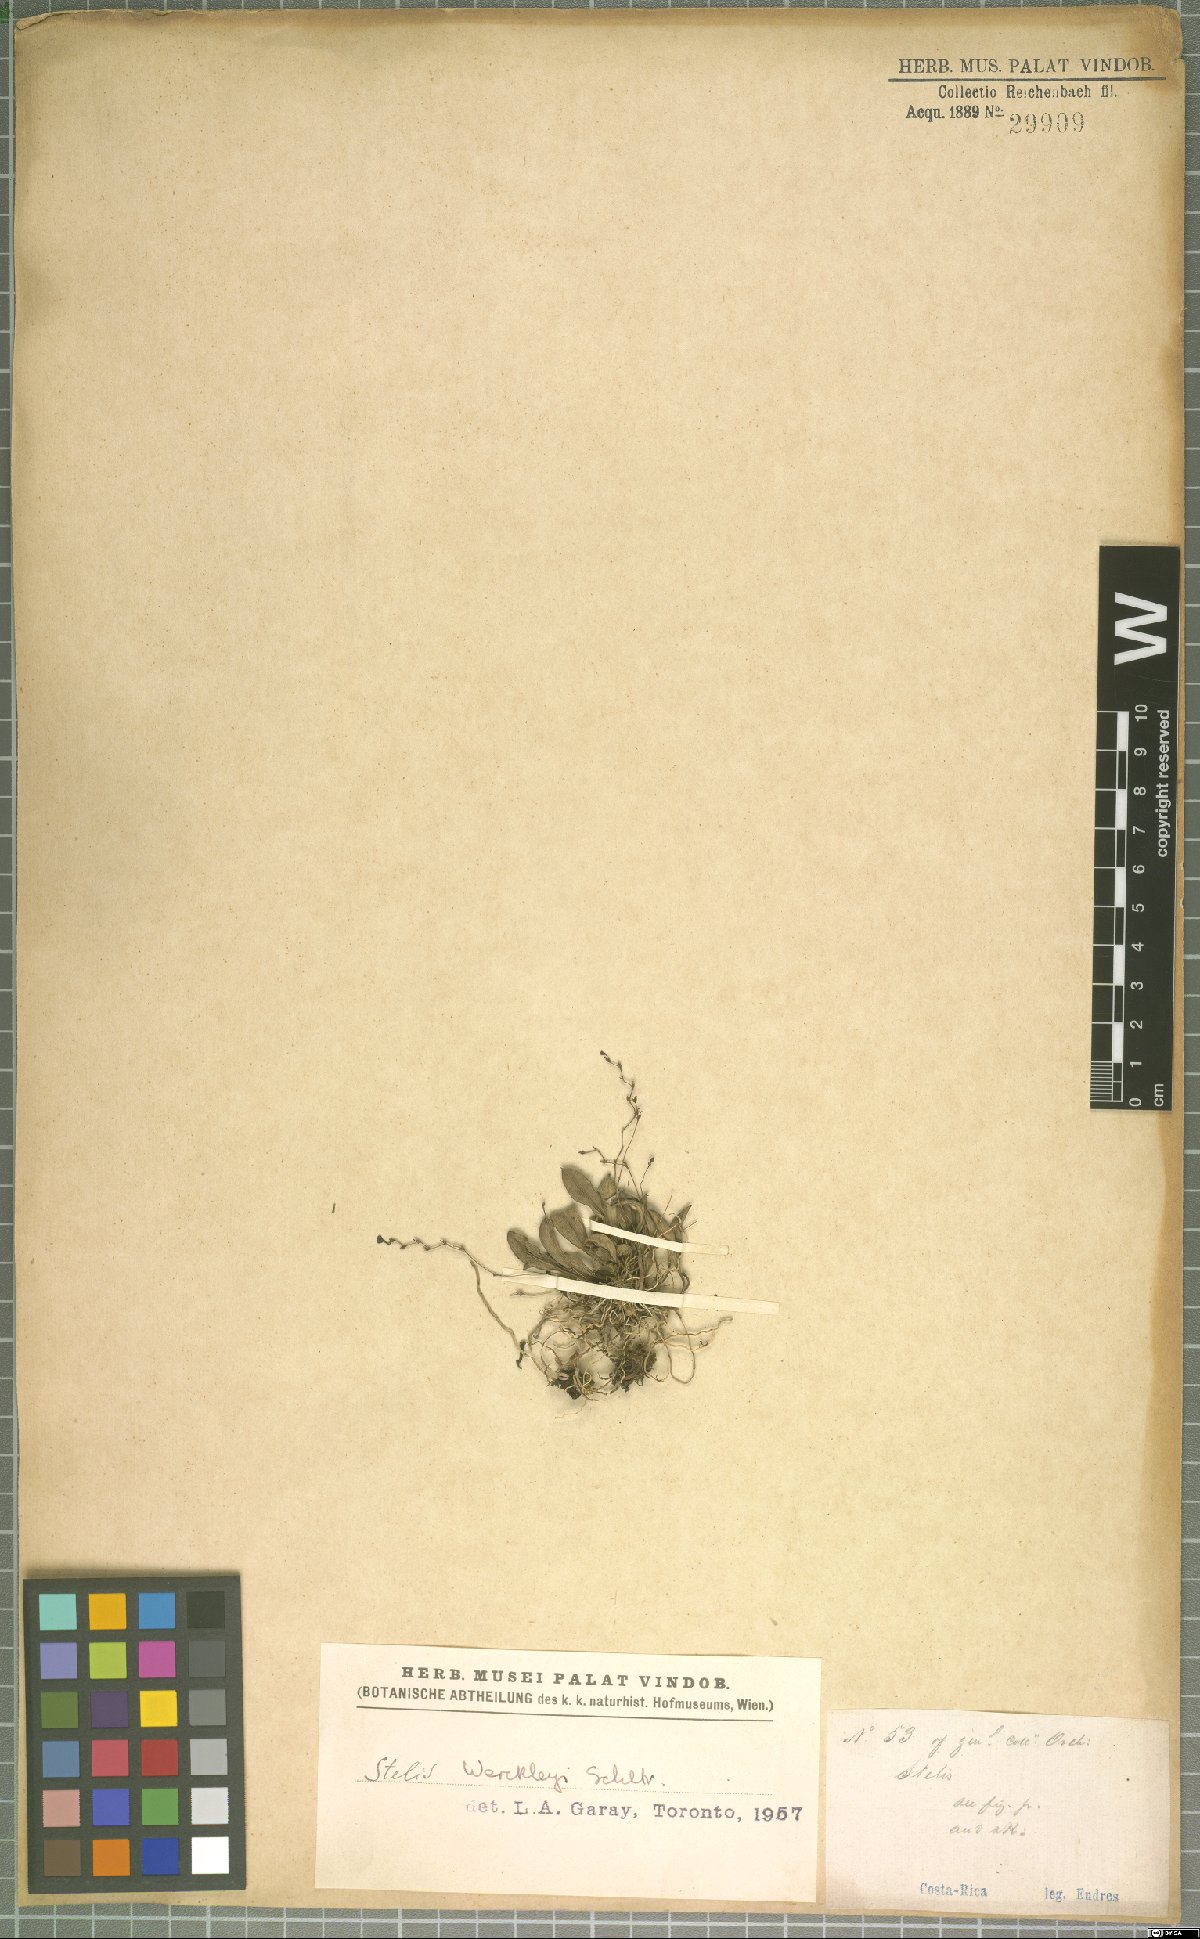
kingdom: Plantae
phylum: Tracheophyta
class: Liliopsida
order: Asparagales
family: Orchidaceae
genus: Stelis
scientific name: Stelis wercklei
